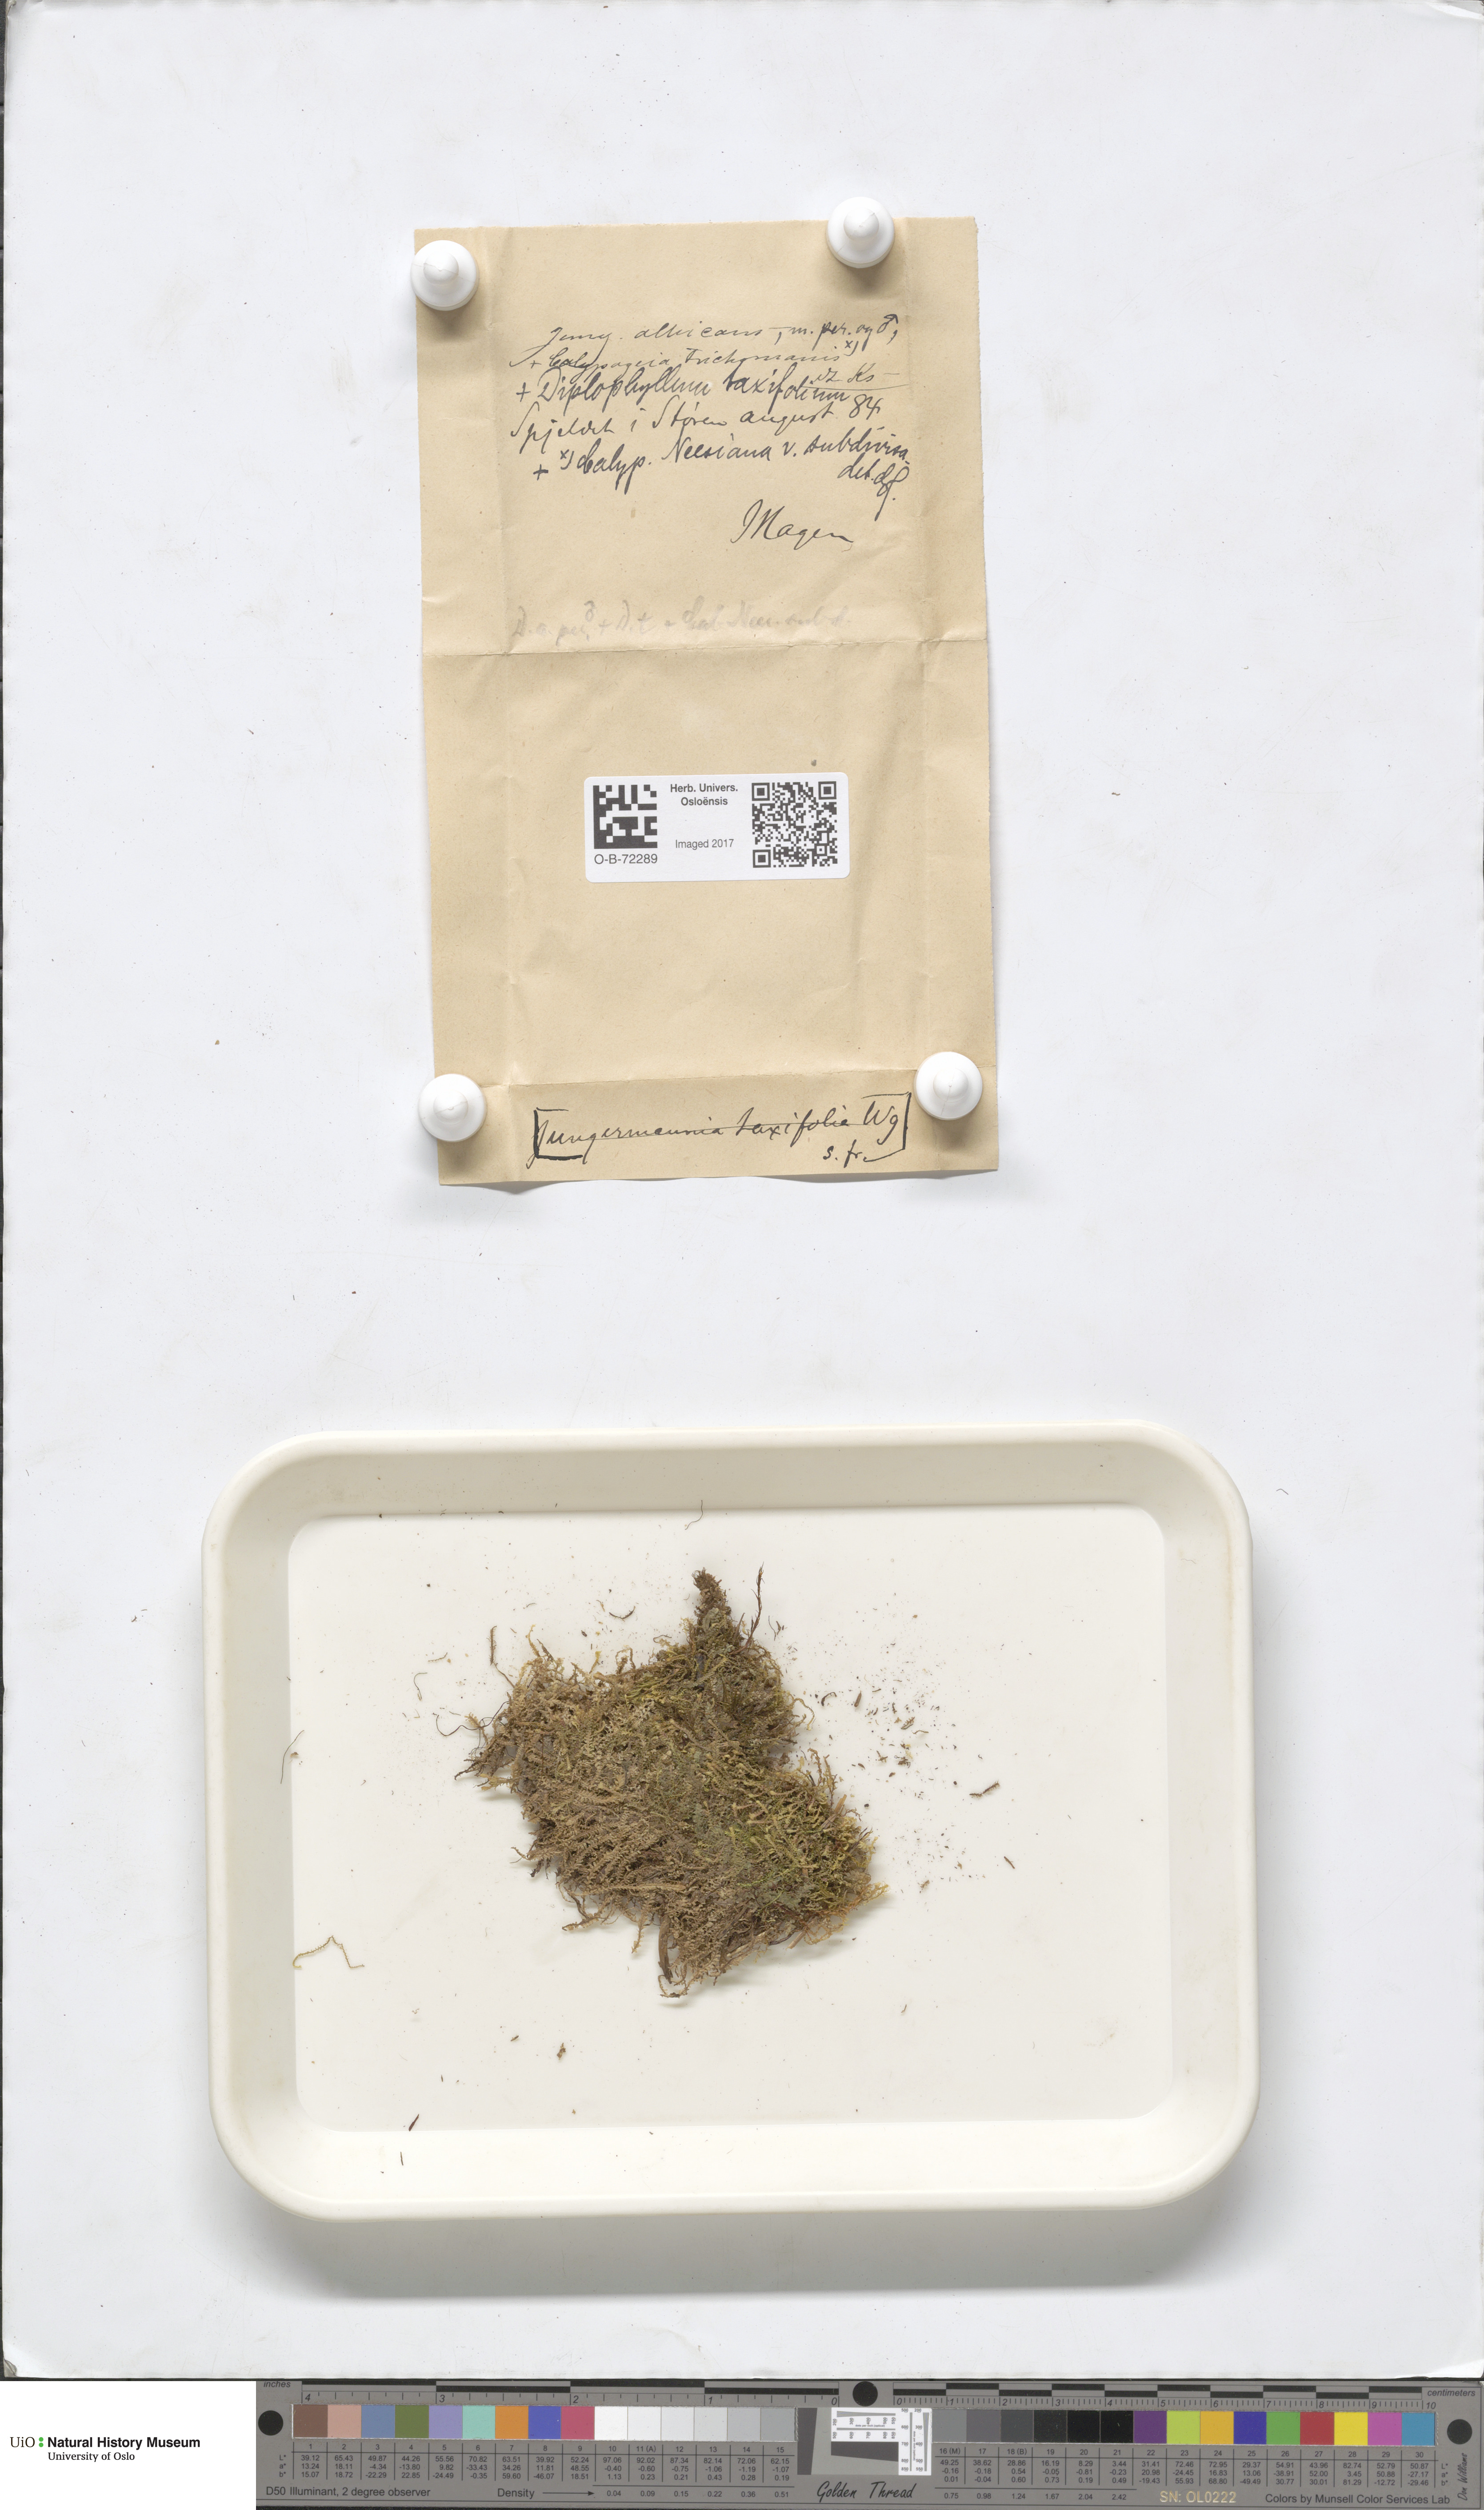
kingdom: Plantae
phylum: Marchantiophyta
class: Jungermanniopsida
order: Jungermanniales
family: Scapaniaceae
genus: Diplophyllum
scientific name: Diplophyllum albicans
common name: White earwort
